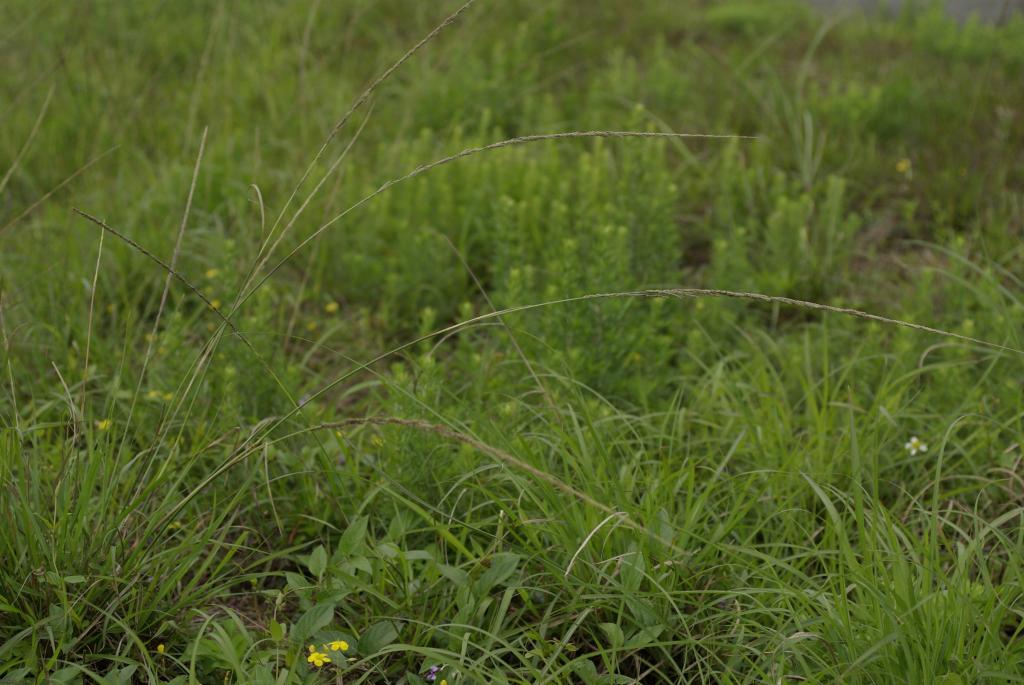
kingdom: Plantae
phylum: Tracheophyta
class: Liliopsida
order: Poales
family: Poaceae
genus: Sporobolus
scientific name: Sporobolus fertilis
